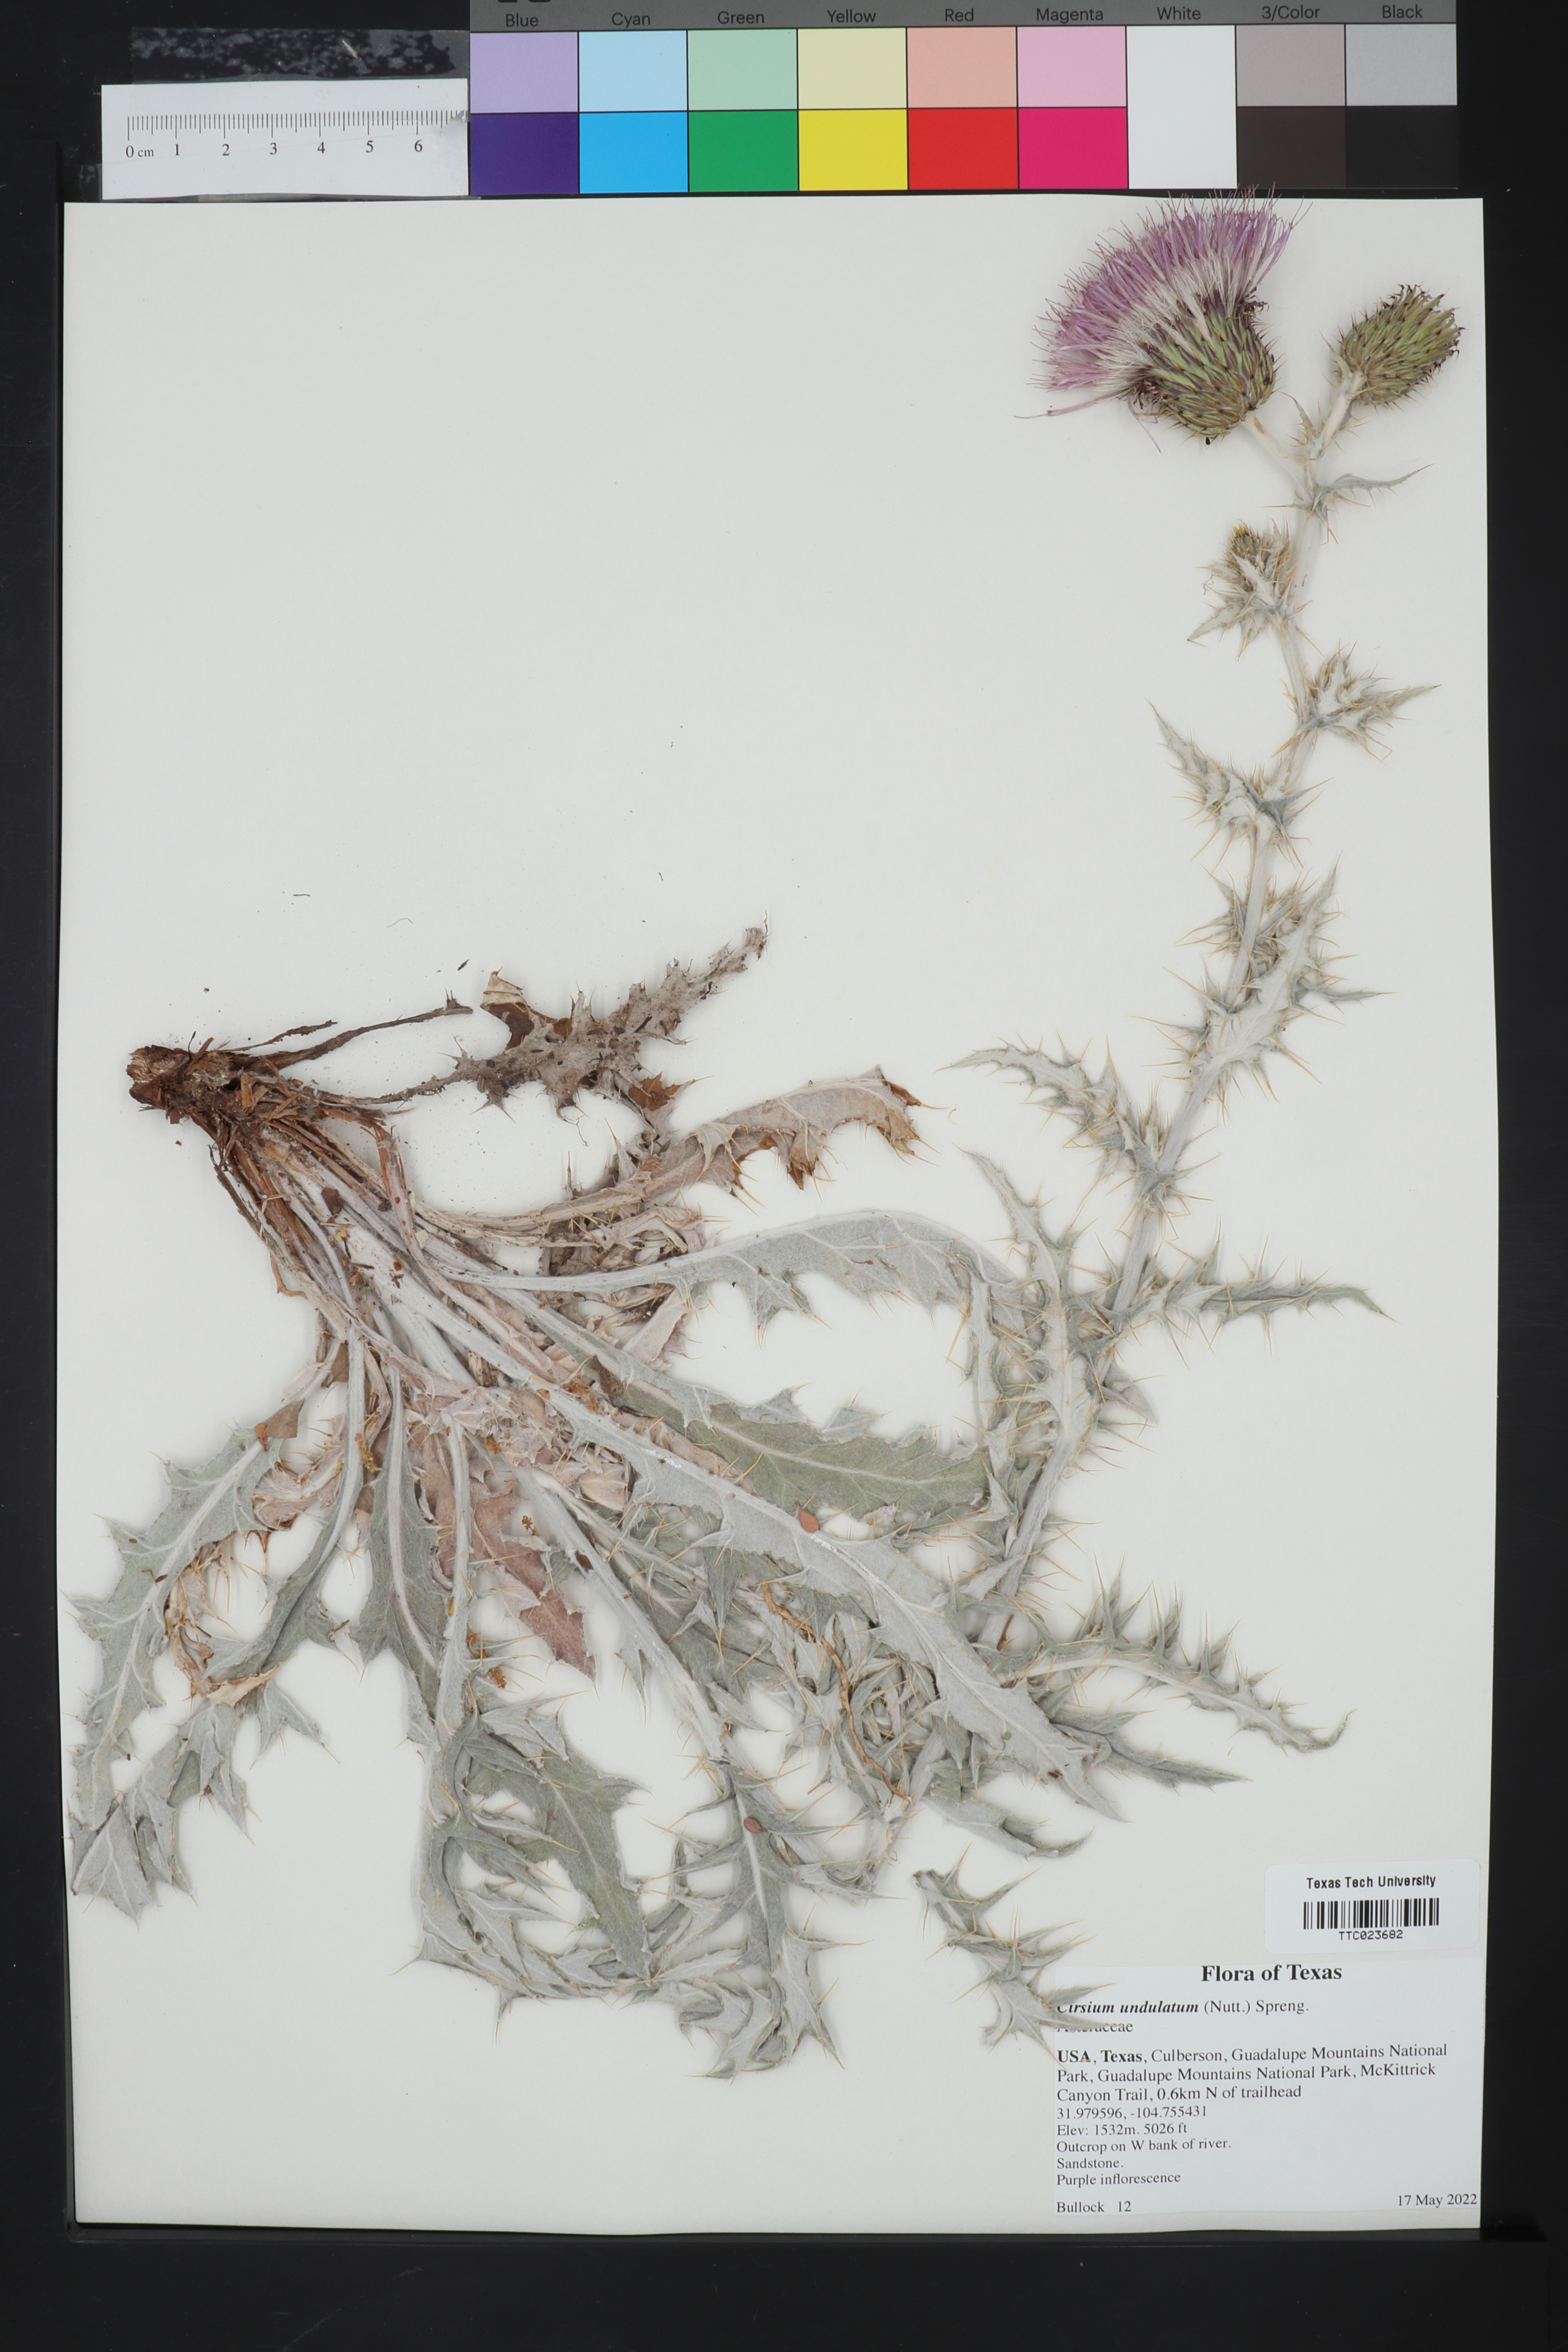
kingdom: Plantae
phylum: Tracheophyta
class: Magnoliopsida
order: Asterales
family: Asteraceae
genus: Cirsium
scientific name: Cirsium undulatum
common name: Pasture thistle
